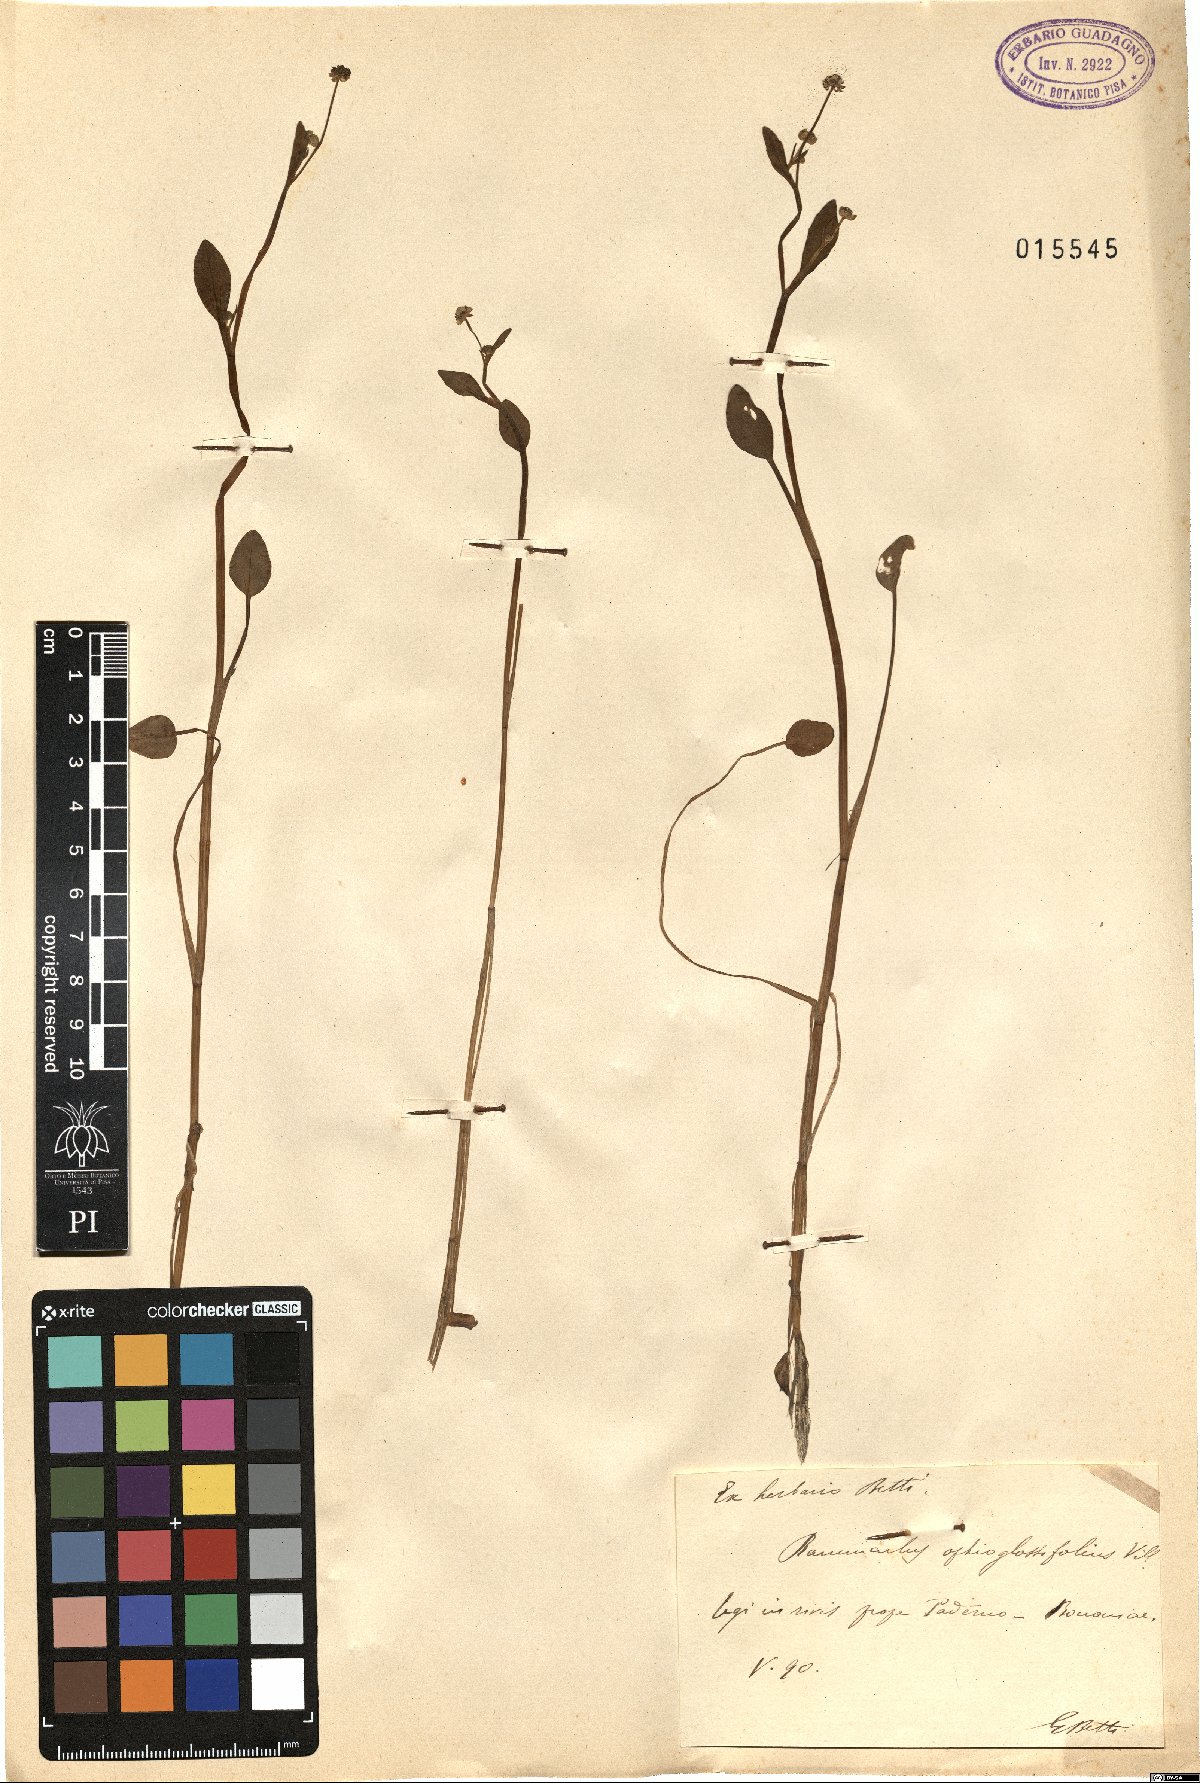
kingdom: Plantae
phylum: Tracheophyta
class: Magnoliopsida
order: Ranunculales
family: Ranunculaceae
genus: Ranunculus
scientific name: Ranunculus ophioglossifolius
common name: Adder's-tongue spearwort
